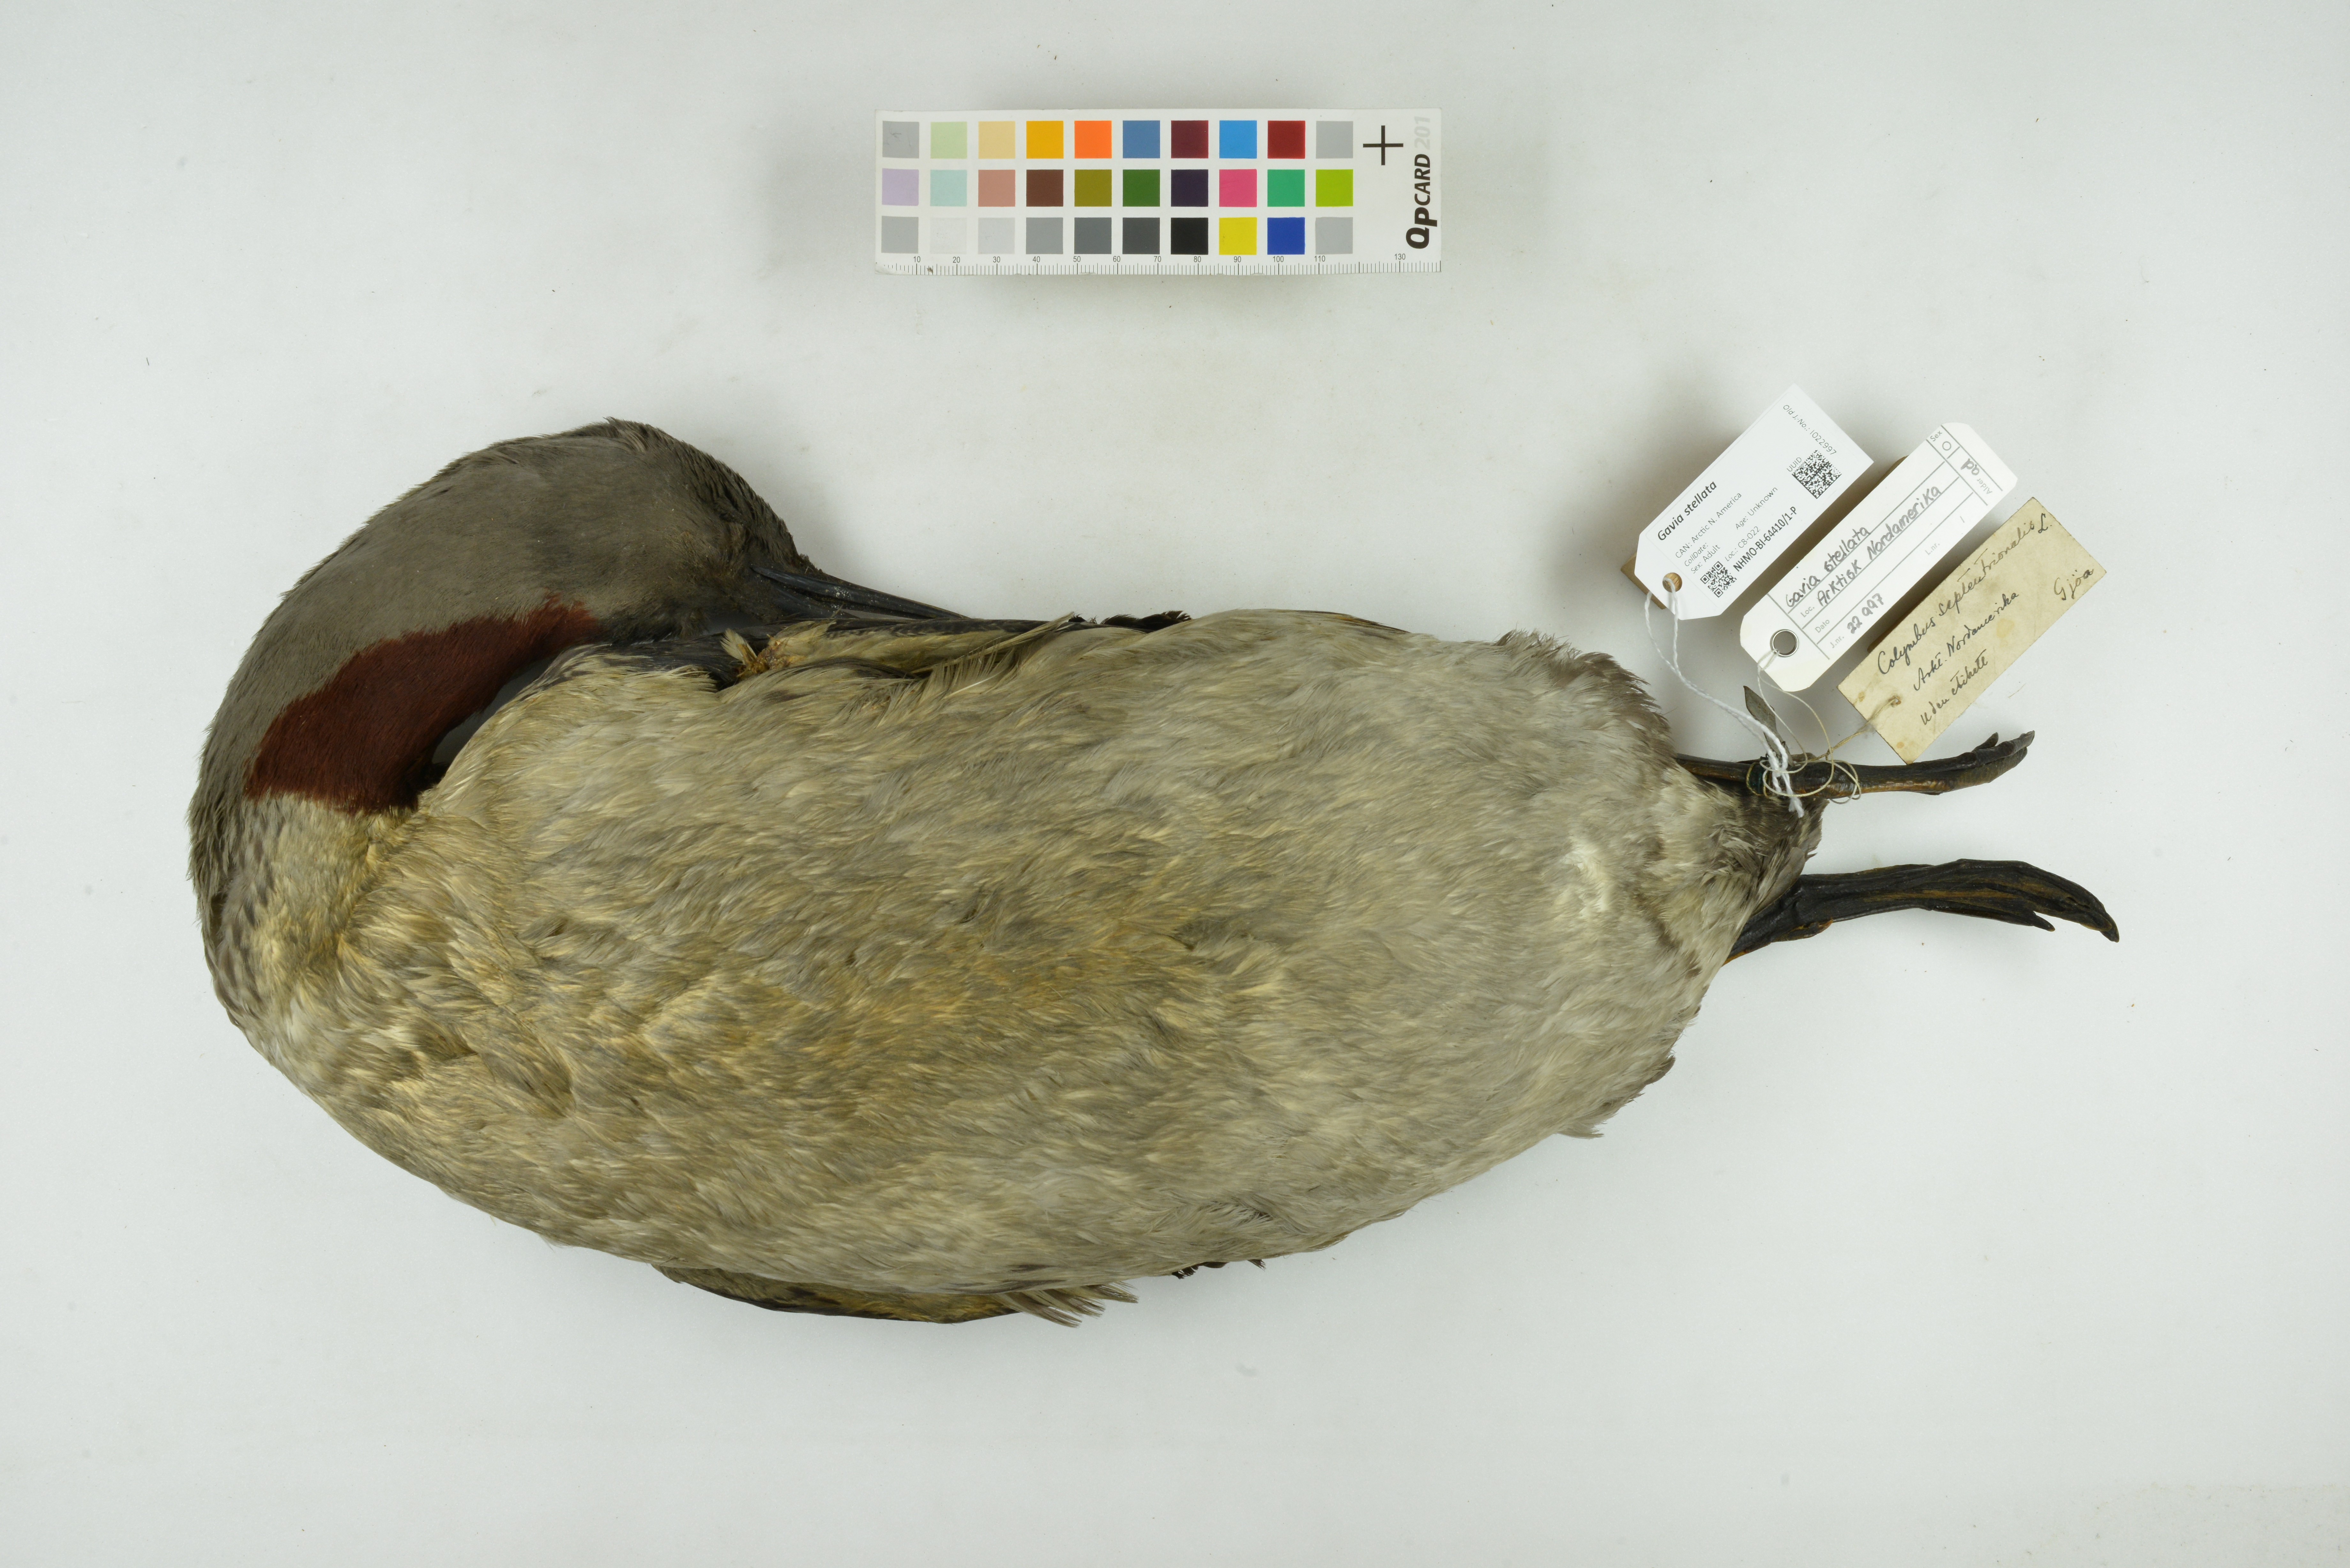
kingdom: Animalia
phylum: Chordata
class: Aves
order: Gaviiformes
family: Gaviidae
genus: Gavia
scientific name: Gavia stellata
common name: Red-throated loon
